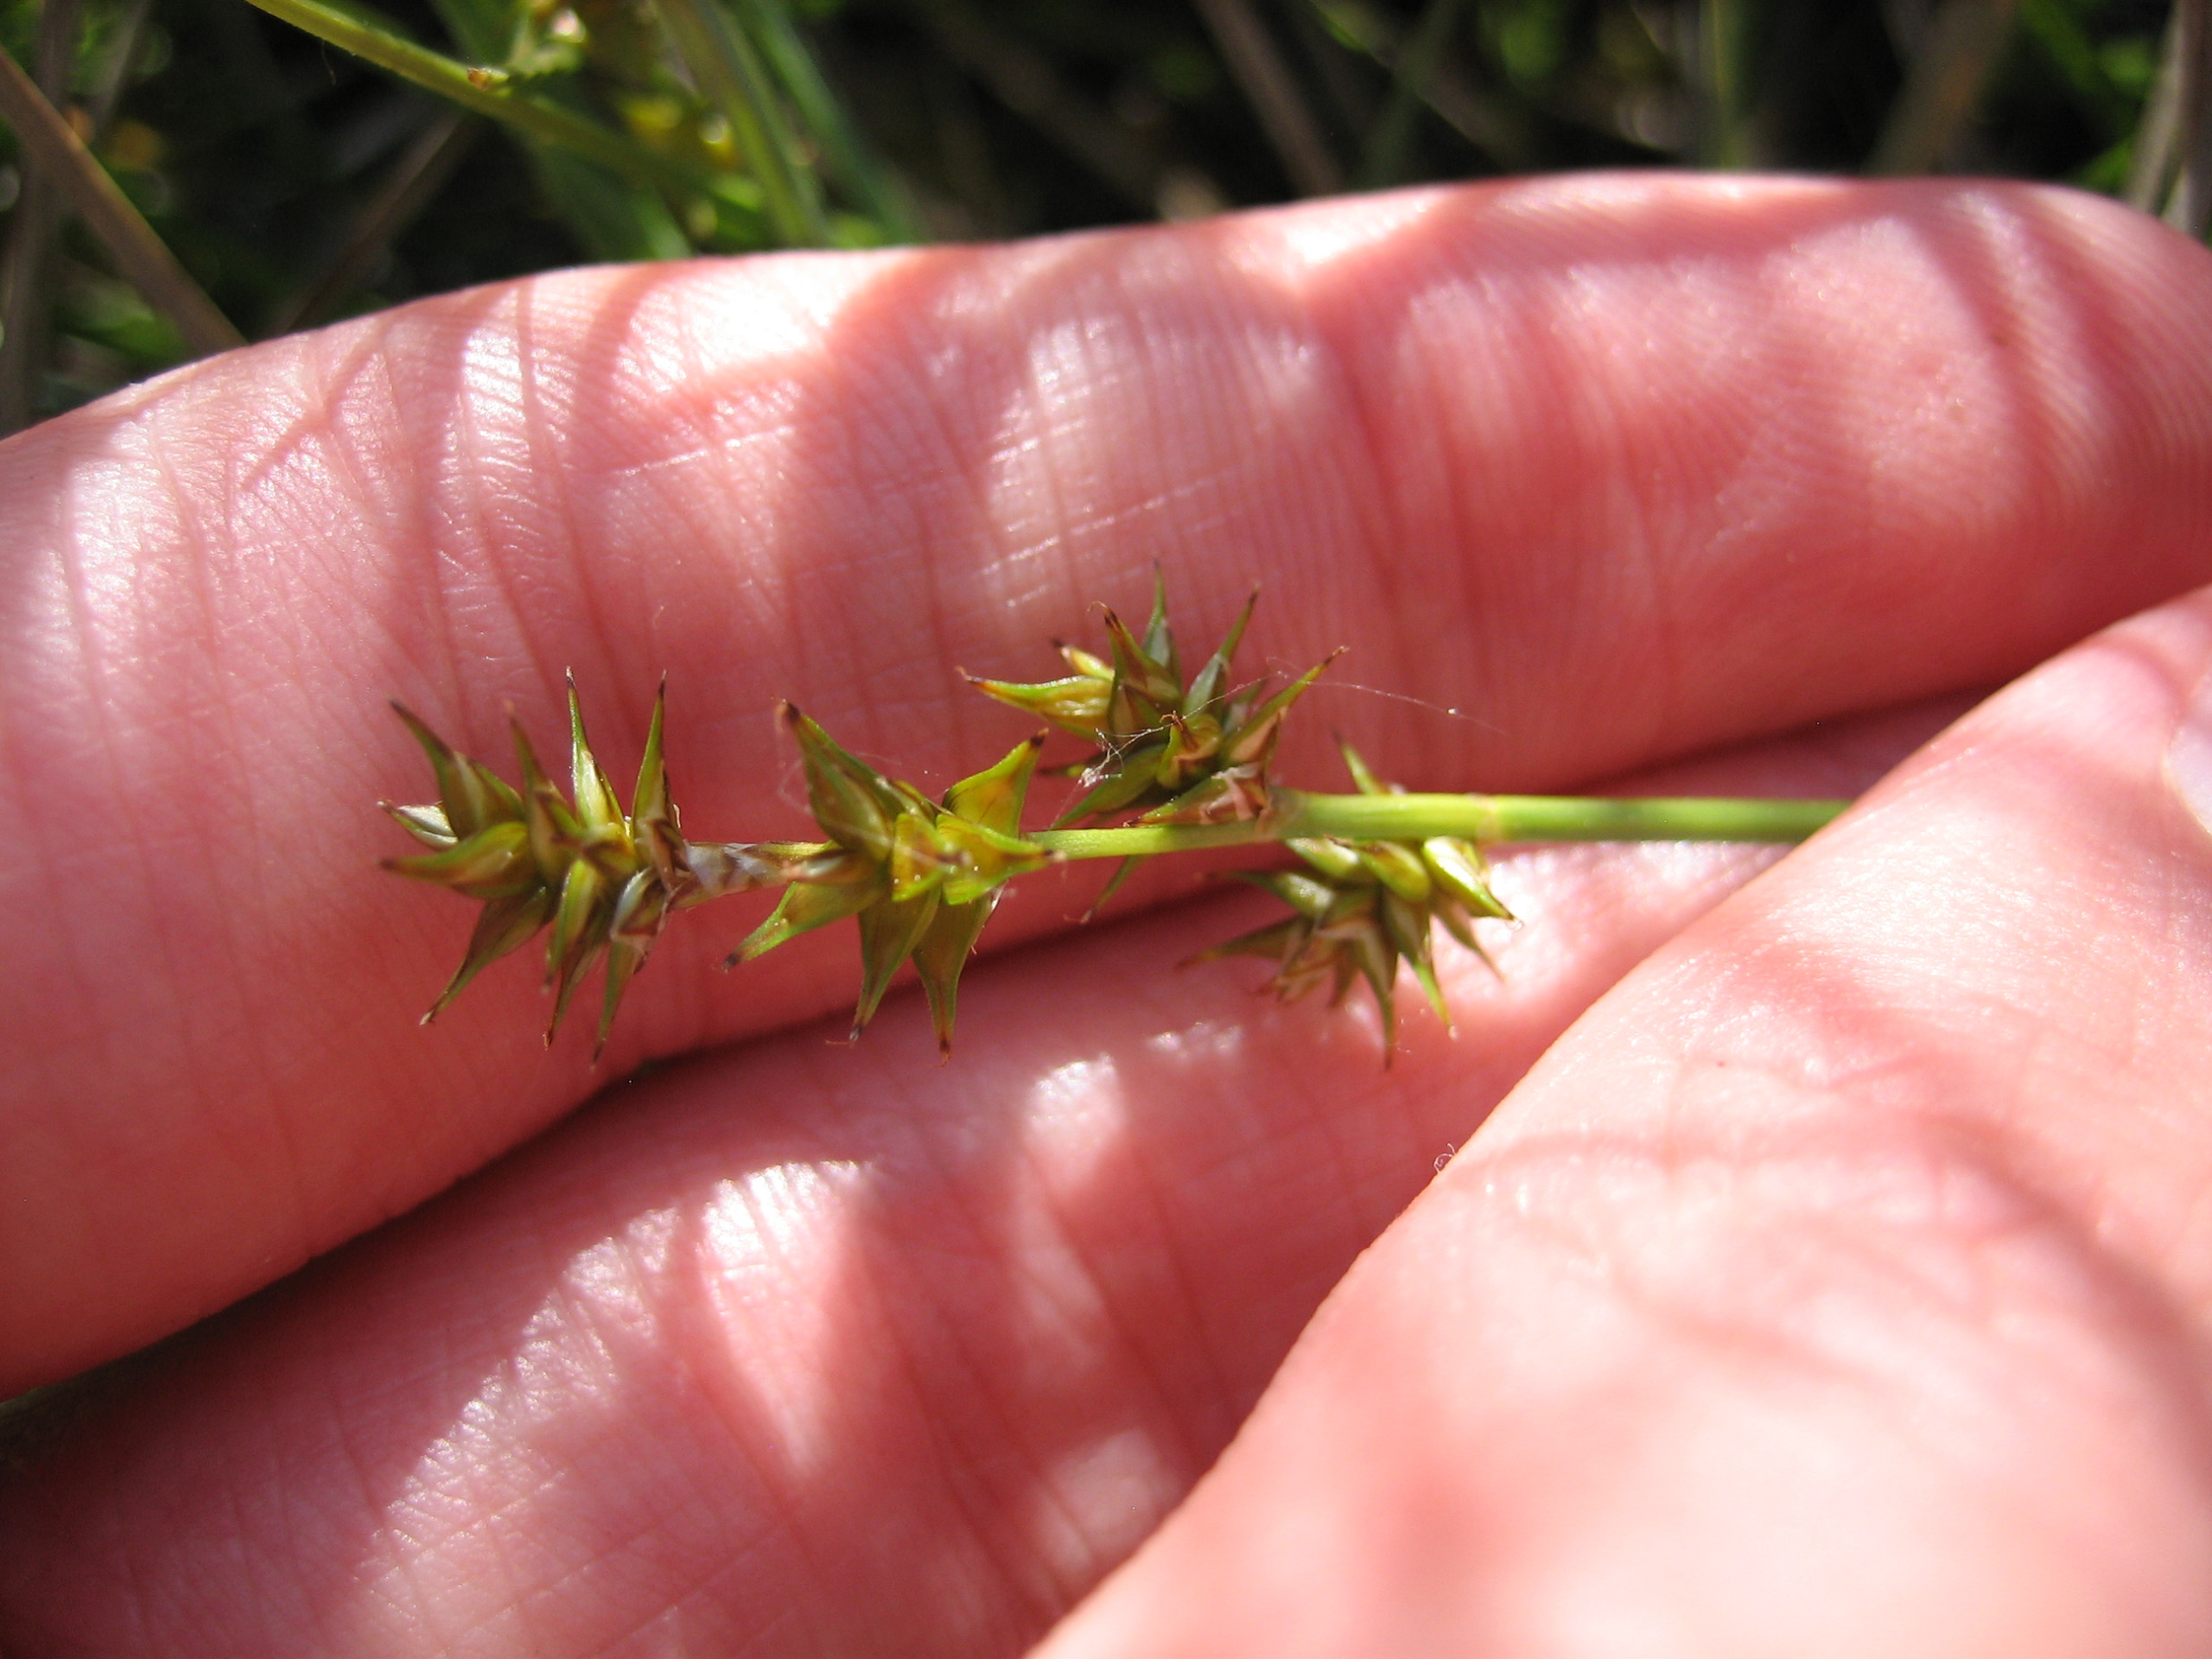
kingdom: Plantae
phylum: Tracheophyta
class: Liliopsida
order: Poales
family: Cyperaceae
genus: Carex
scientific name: Carex echinata
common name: Stjerne-star
